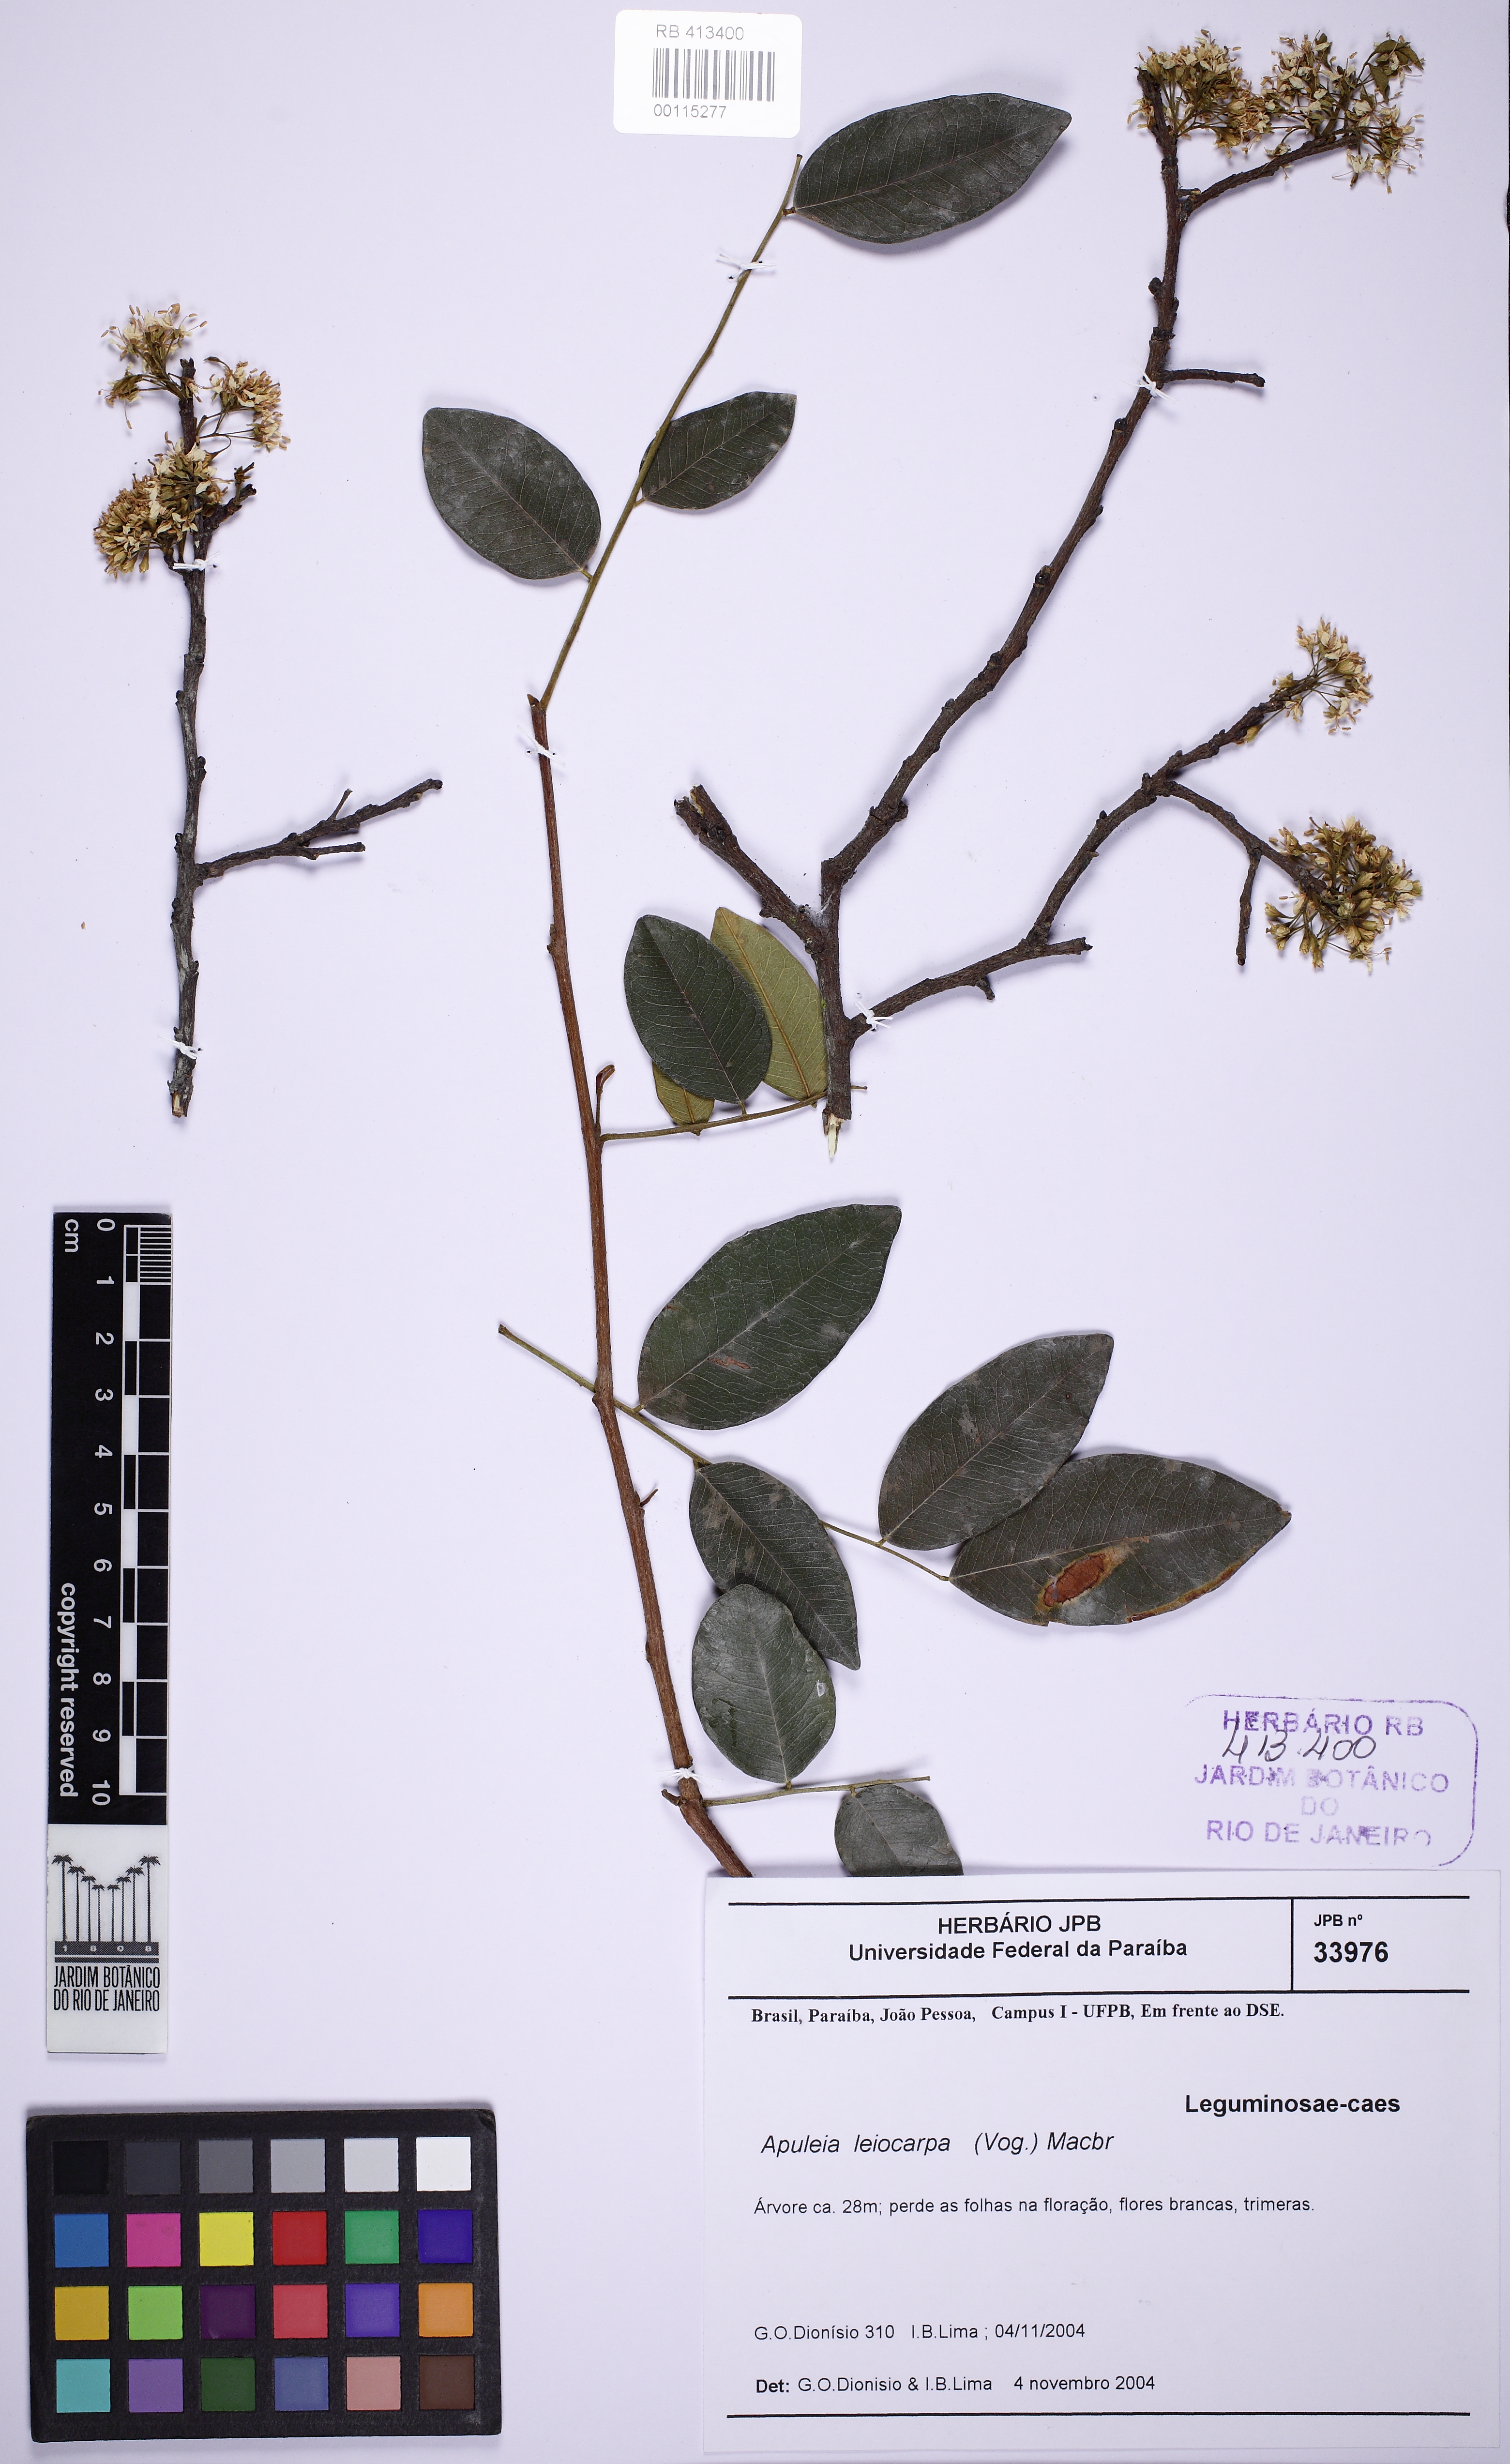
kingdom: Plantae
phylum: Tracheophyta
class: Magnoliopsida
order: Fabales
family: Fabaceae
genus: Apuleia
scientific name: Apuleia leiocarpa
